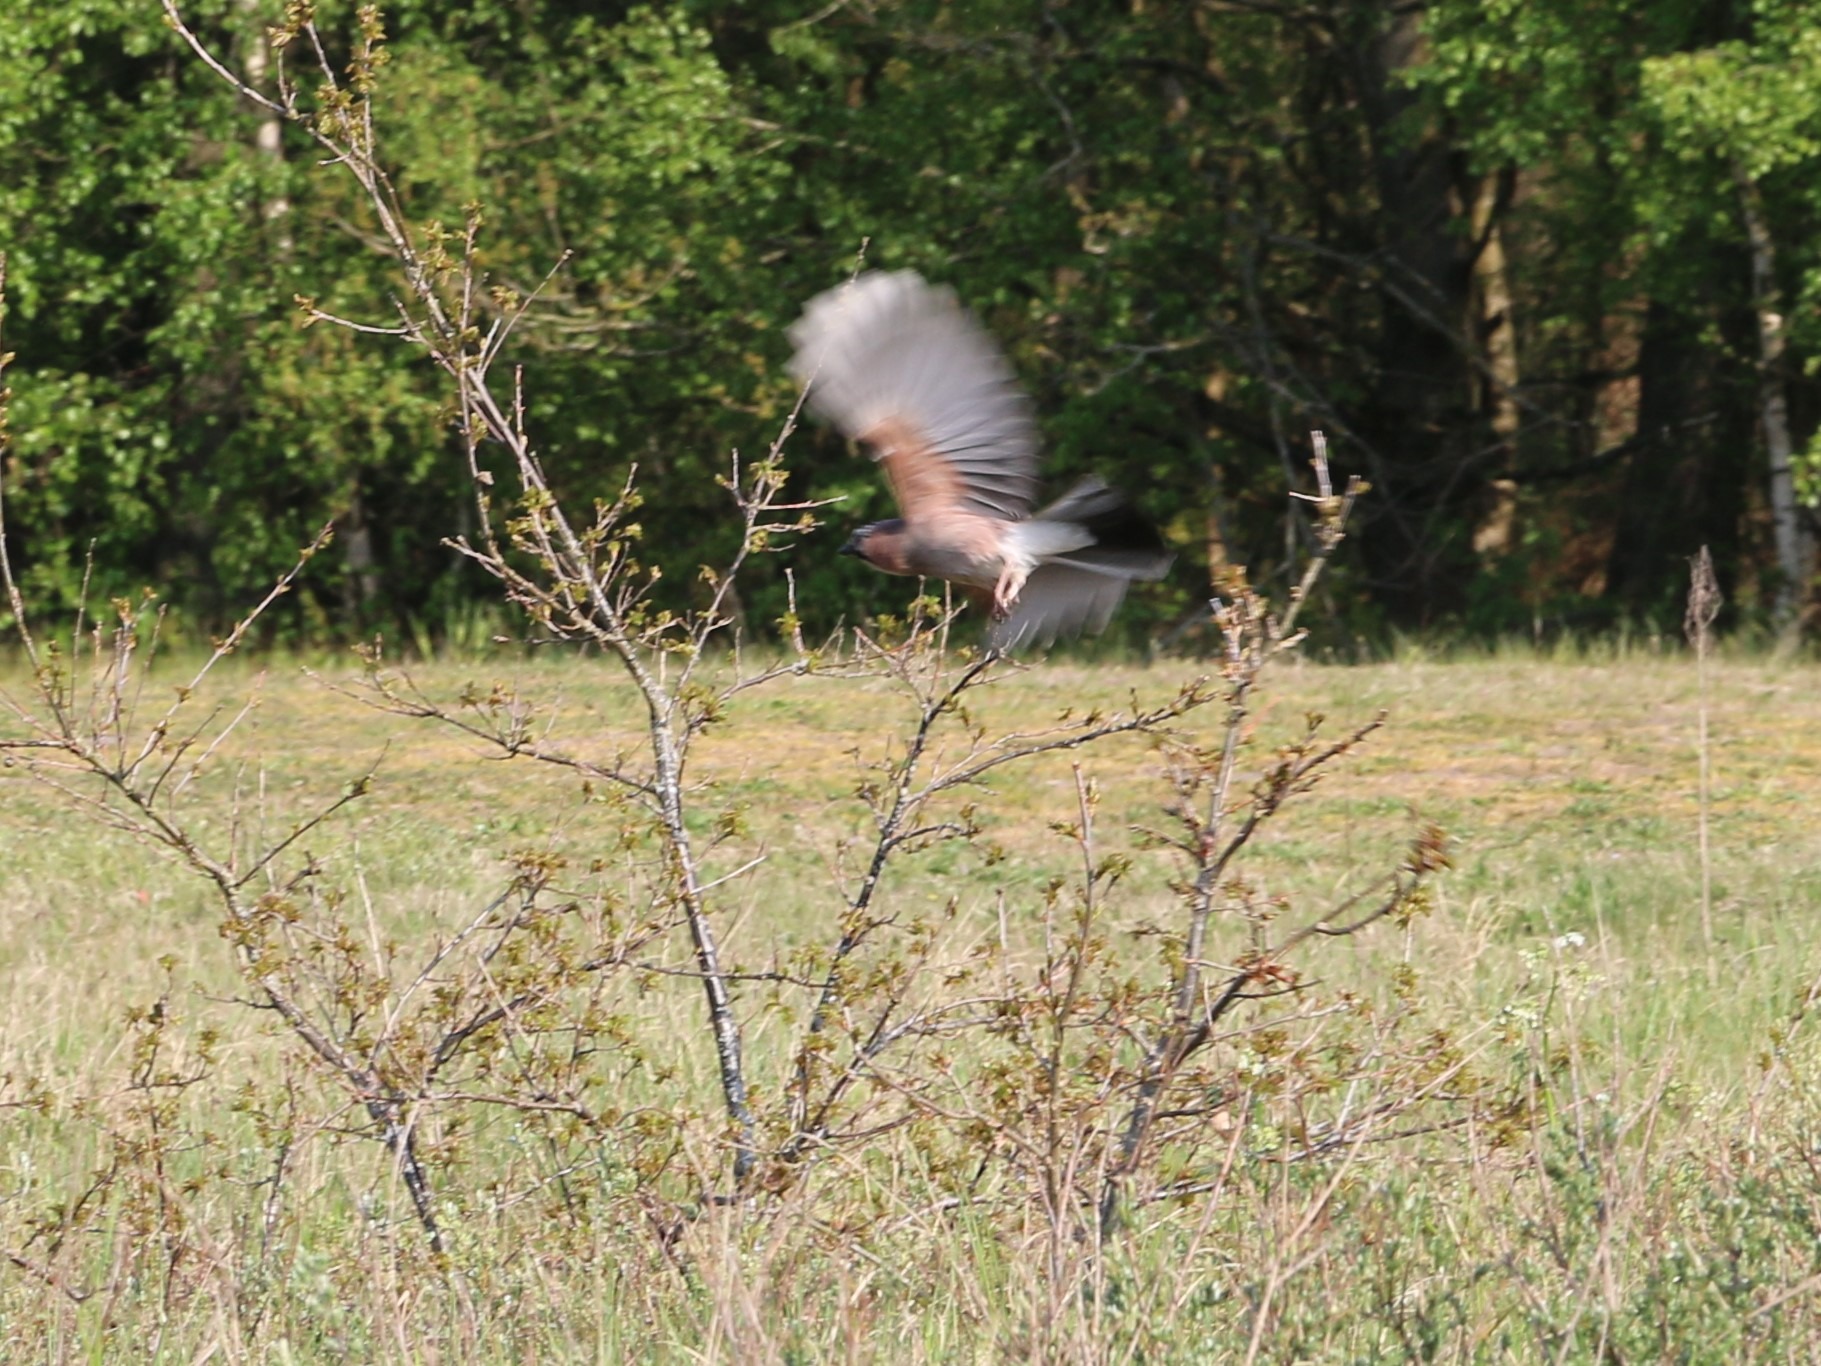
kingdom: Animalia
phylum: Chordata
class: Aves
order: Passeriformes
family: Corvidae
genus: Garrulus
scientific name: Garrulus glandarius
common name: Skovskade
